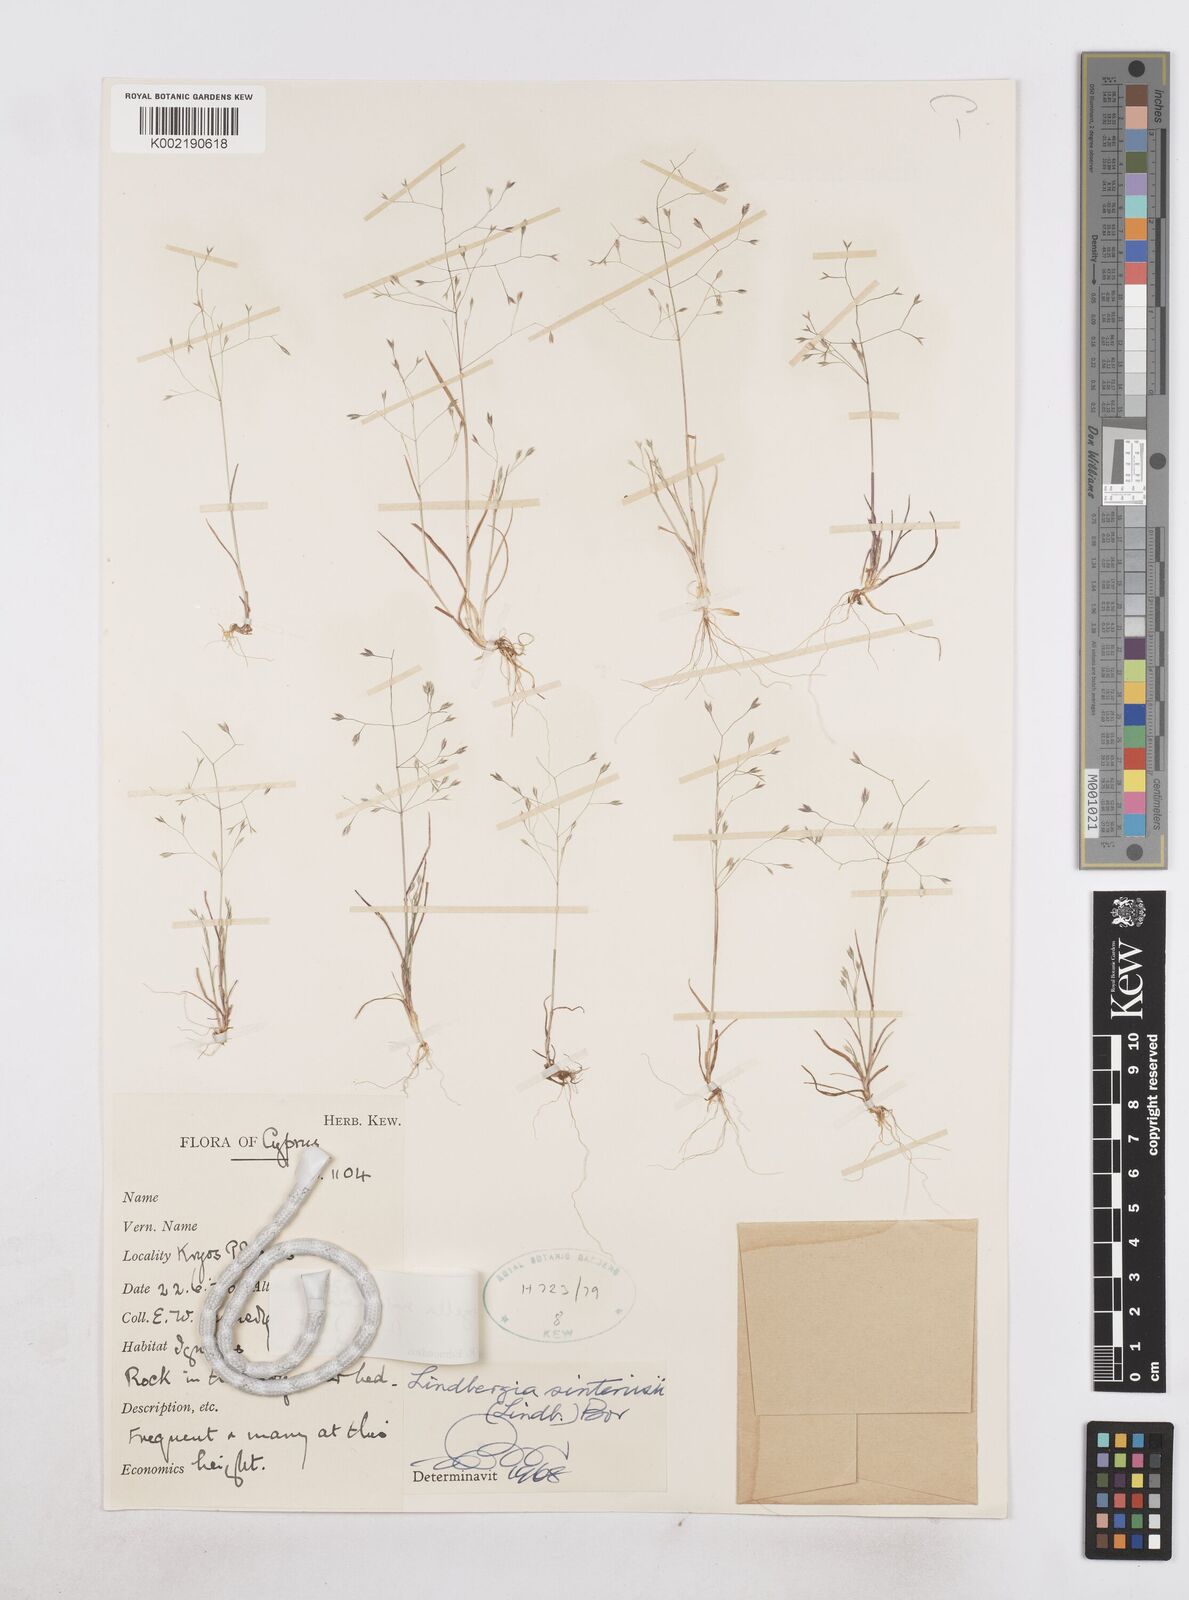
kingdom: Plantae
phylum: Tracheophyta
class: Liliopsida
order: Poales
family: Poaceae
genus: Poa
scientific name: Poa sintenisii
